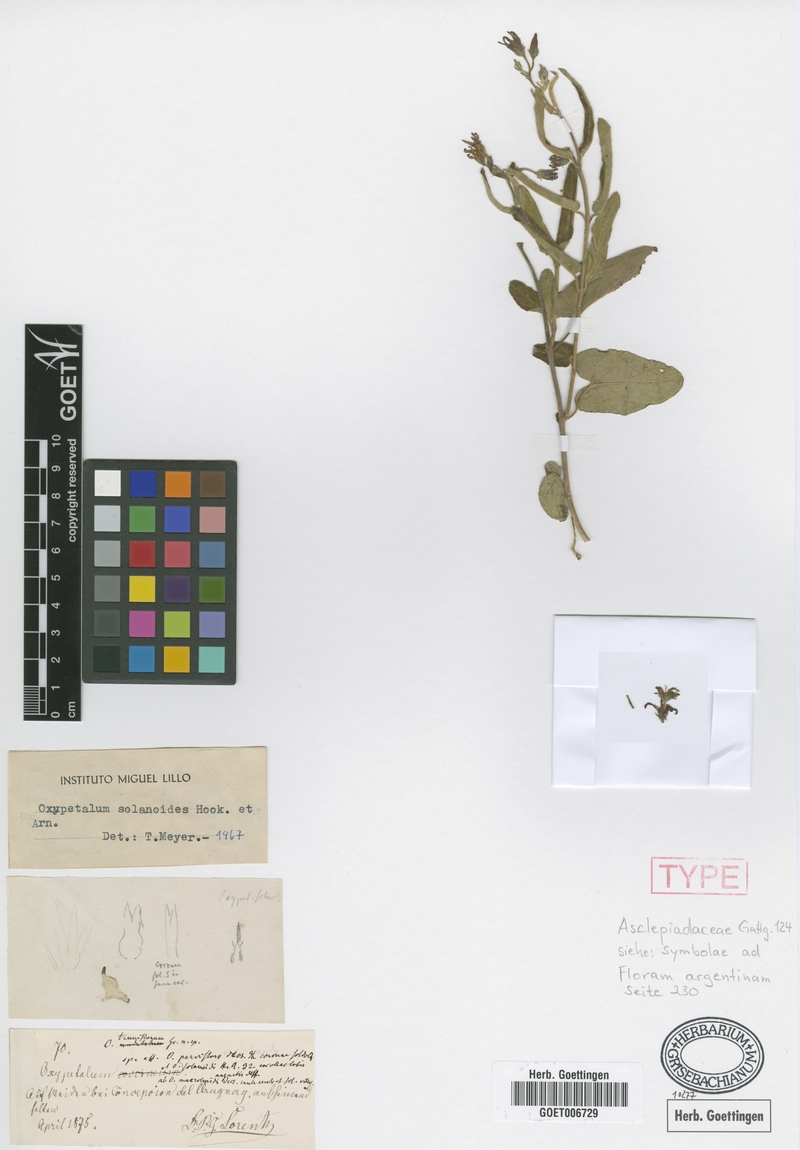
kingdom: Plantae
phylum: Tracheophyta
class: Magnoliopsida
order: Gentianales
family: Apocynaceae
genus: Oxypetalum
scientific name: Oxypetalum solanoides
